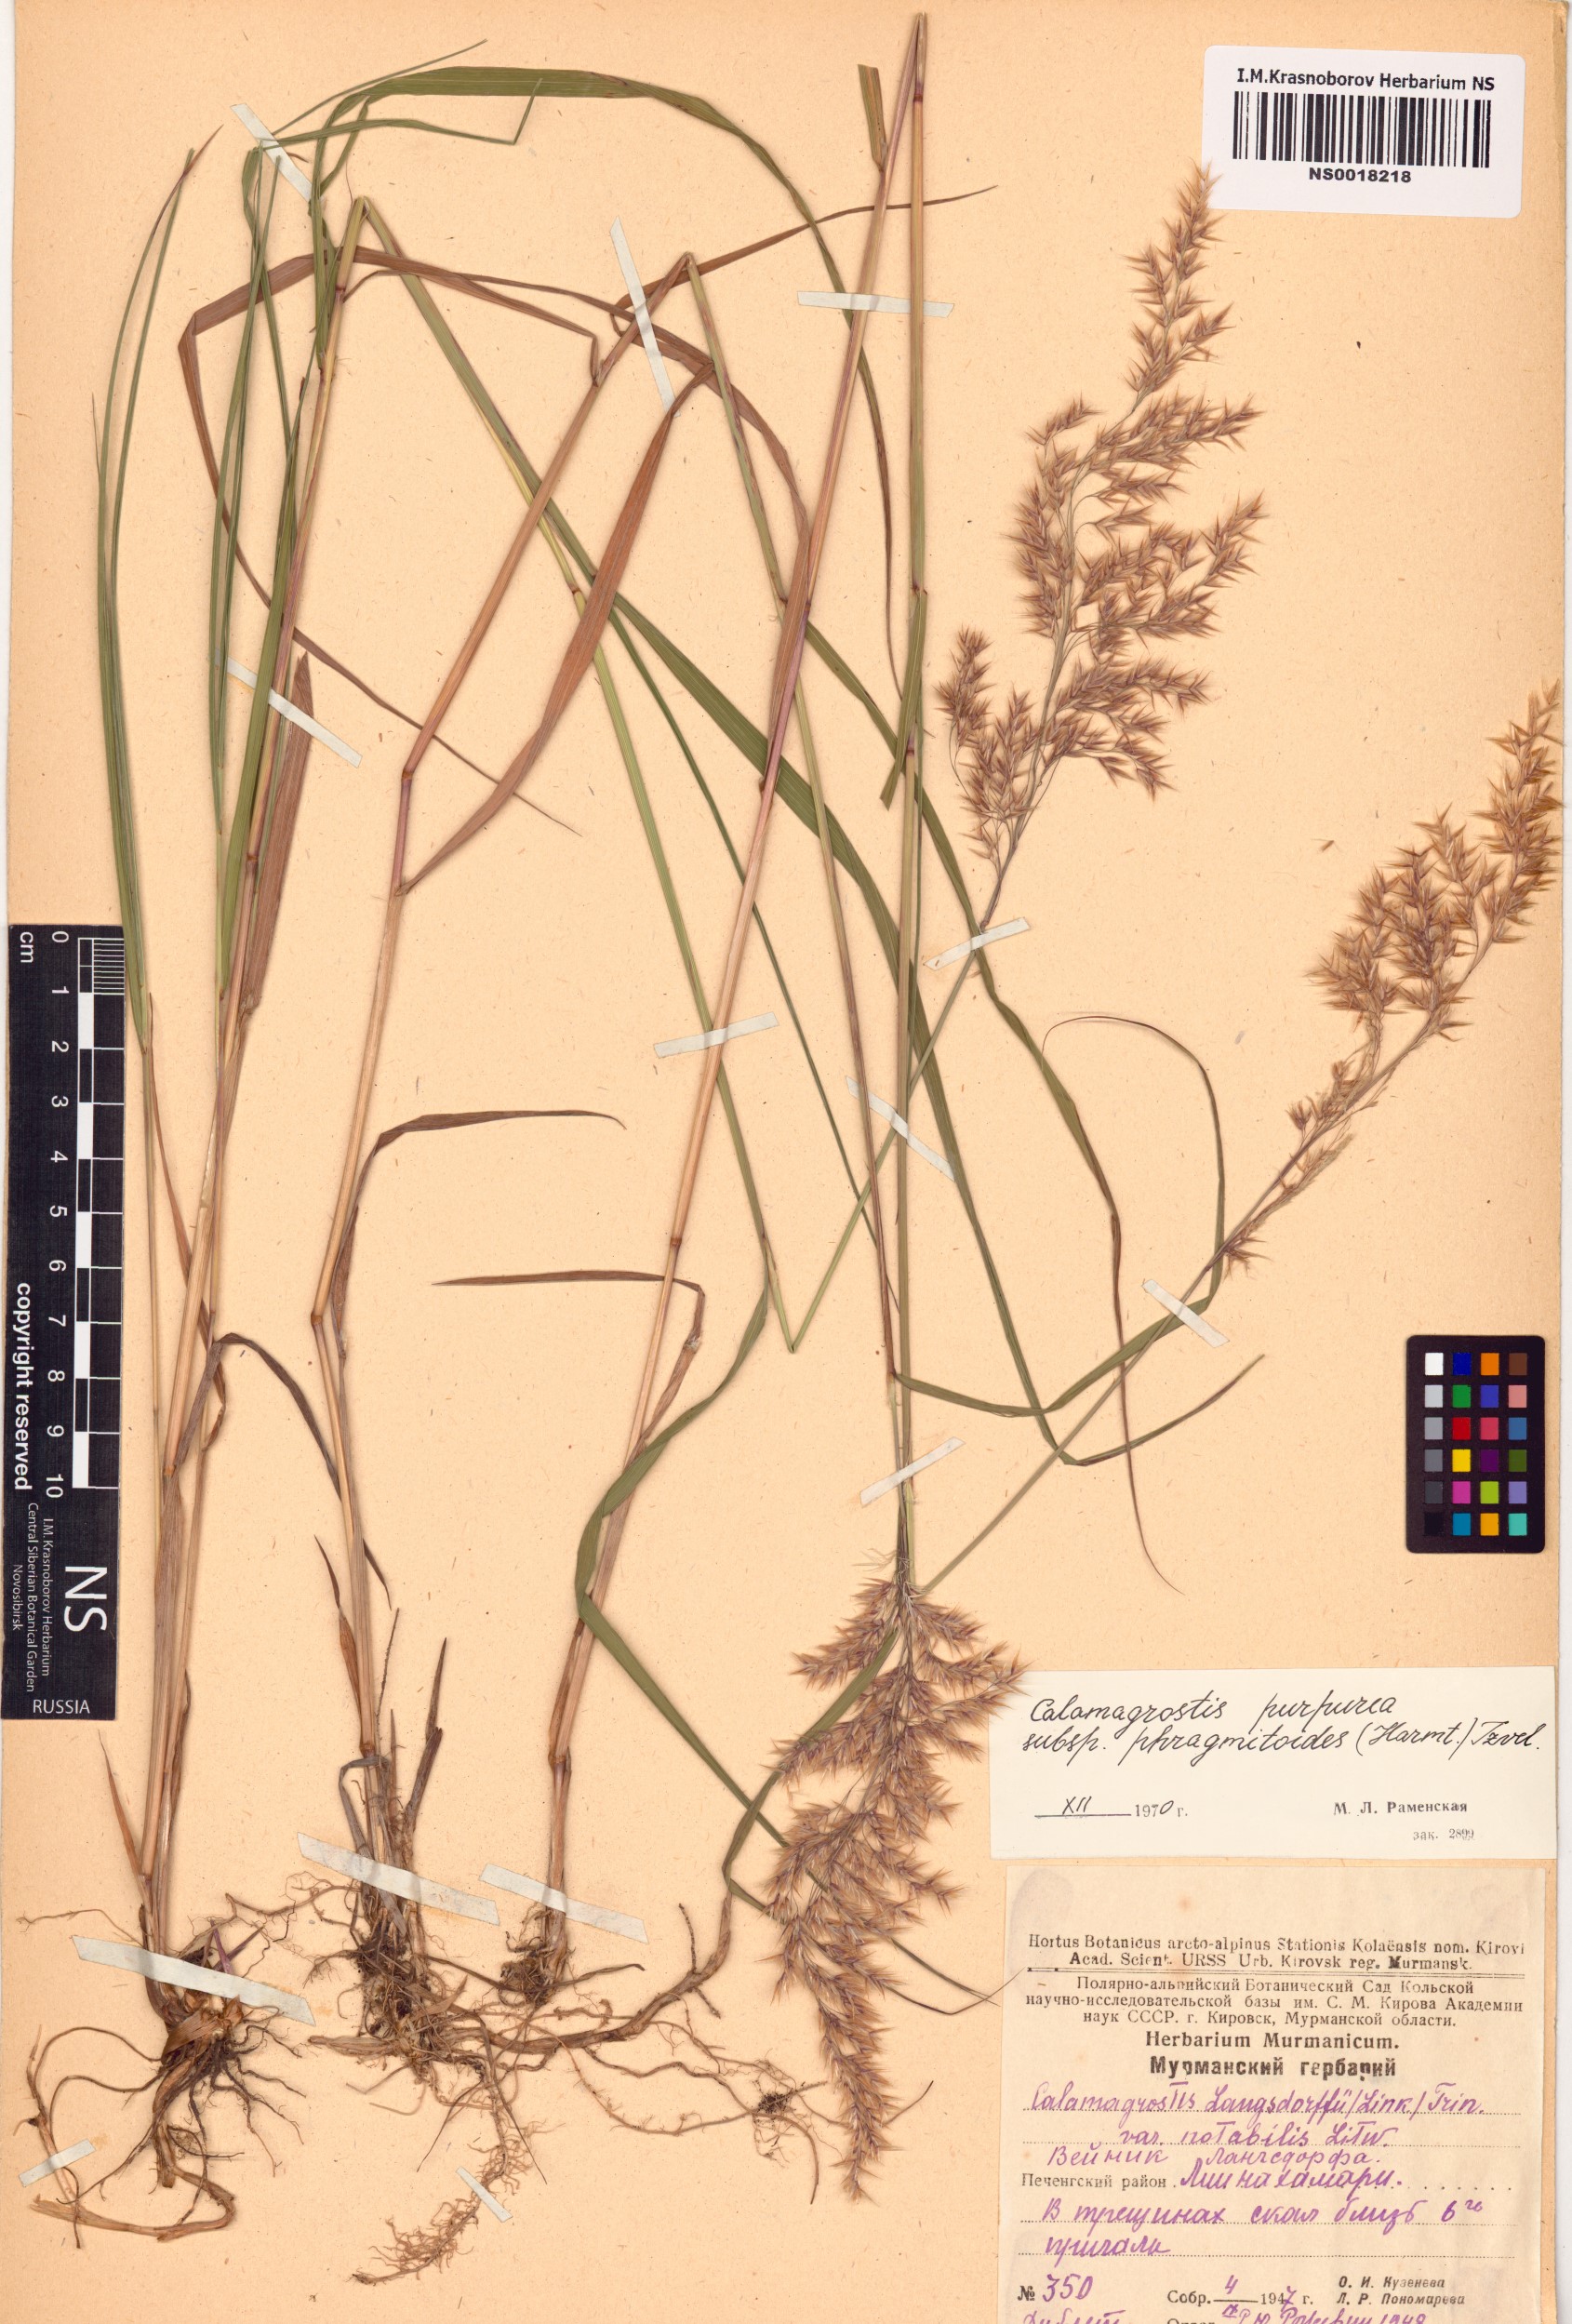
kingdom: Plantae
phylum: Tracheophyta
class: Liliopsida
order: Poales
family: Poaceae
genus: Calamagrostis
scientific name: Calamagrostis purpurea
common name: Scandinavian small-reed
